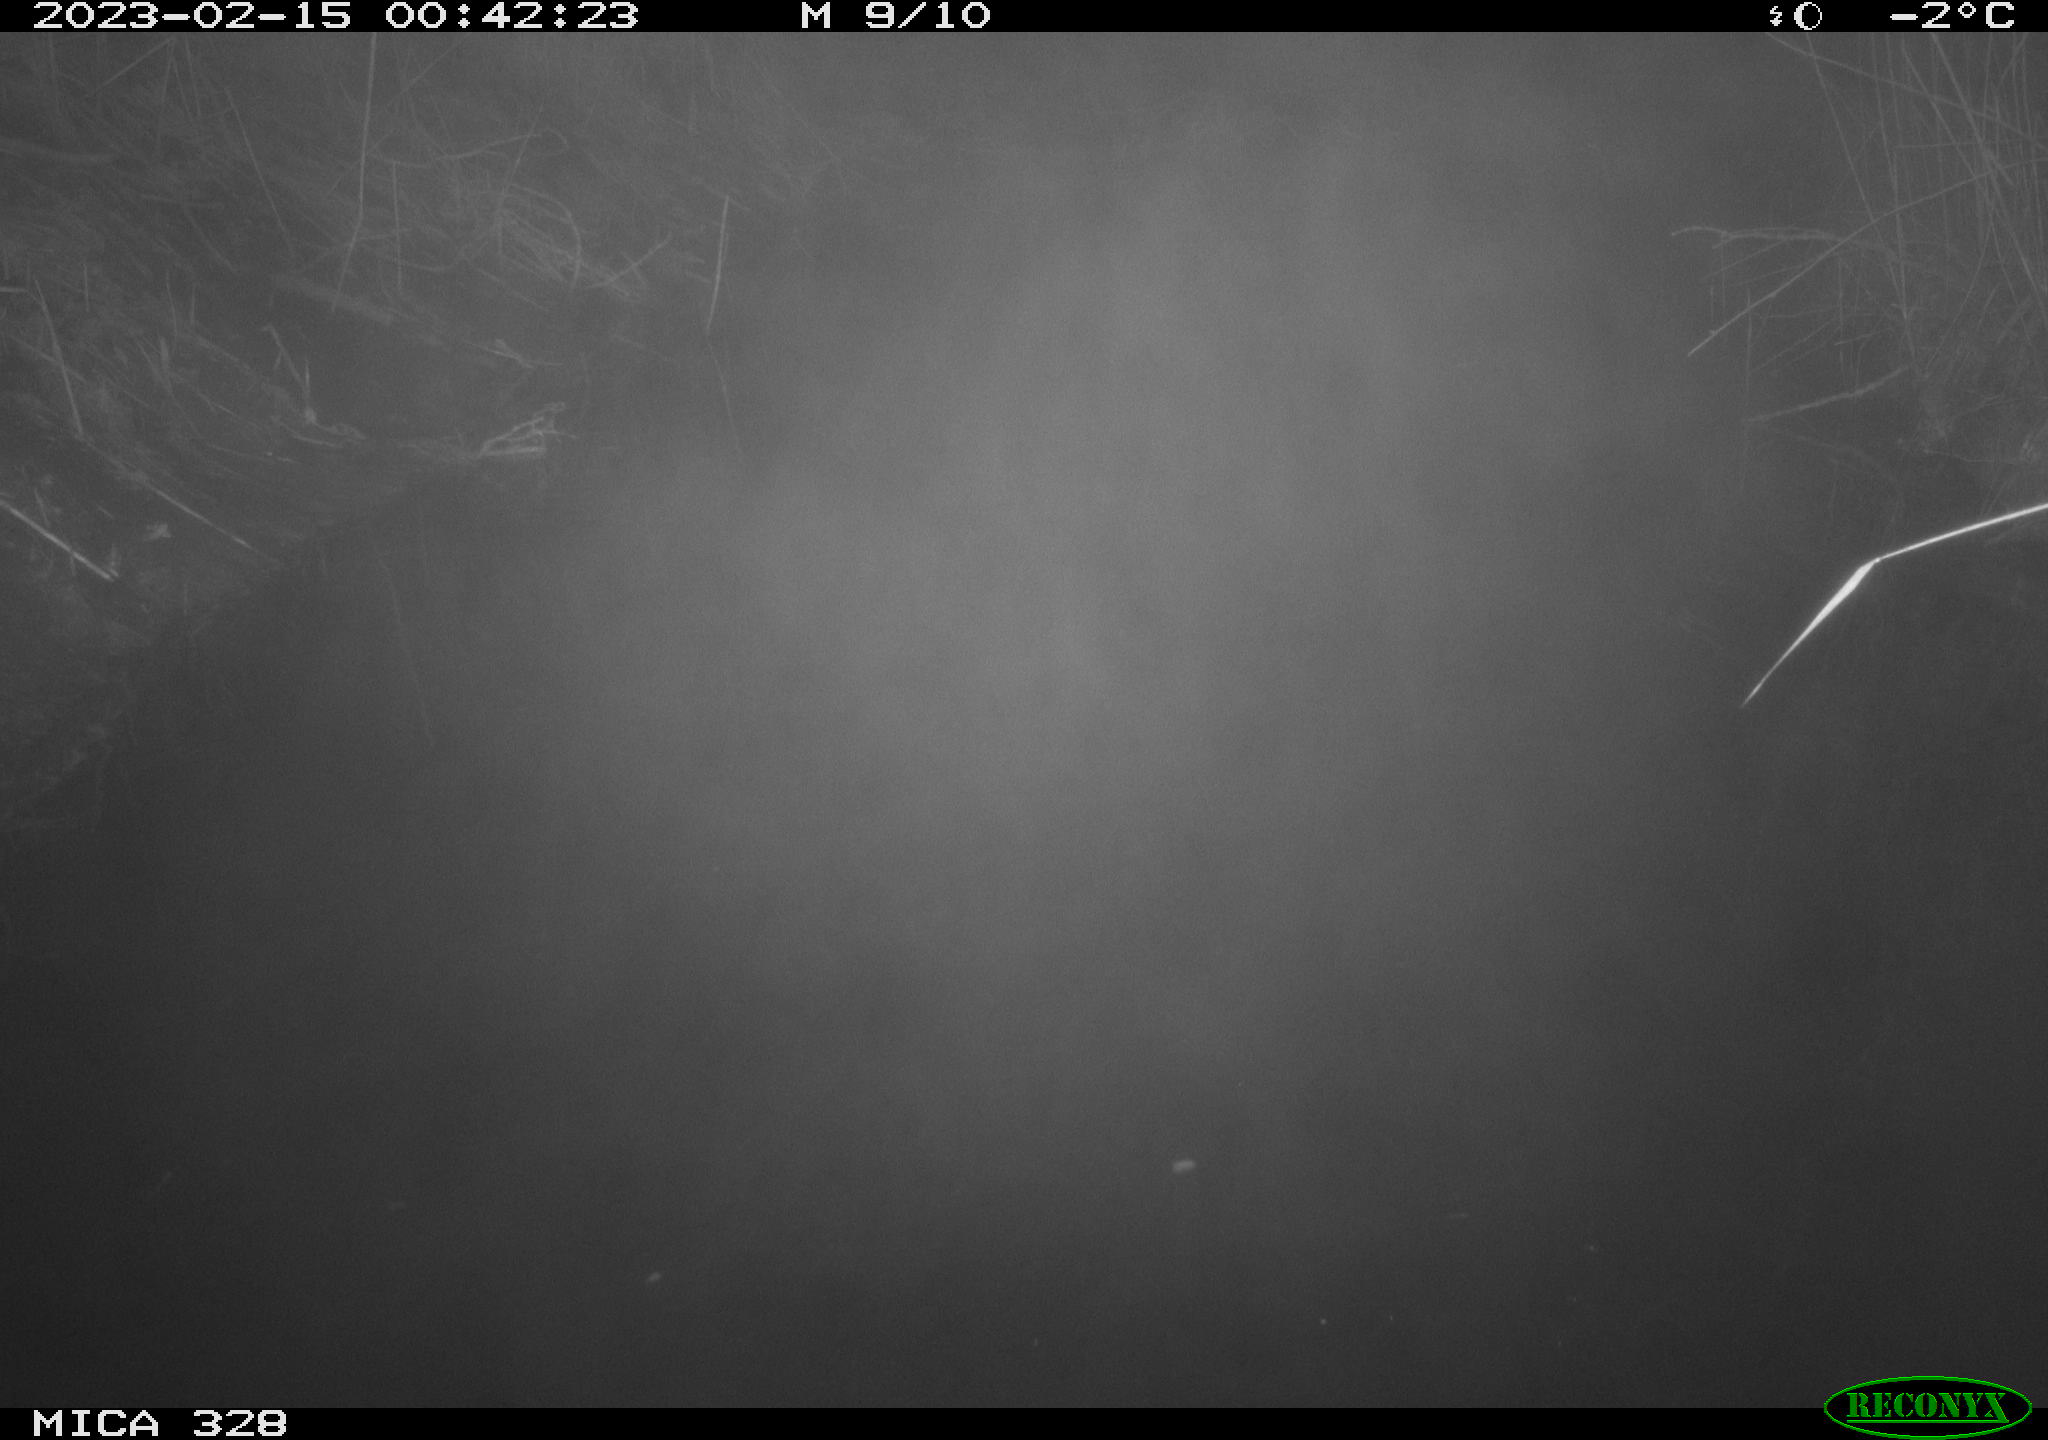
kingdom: Animalia
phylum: Chordata
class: Mammalia
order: Rodentia
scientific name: Rodentia
